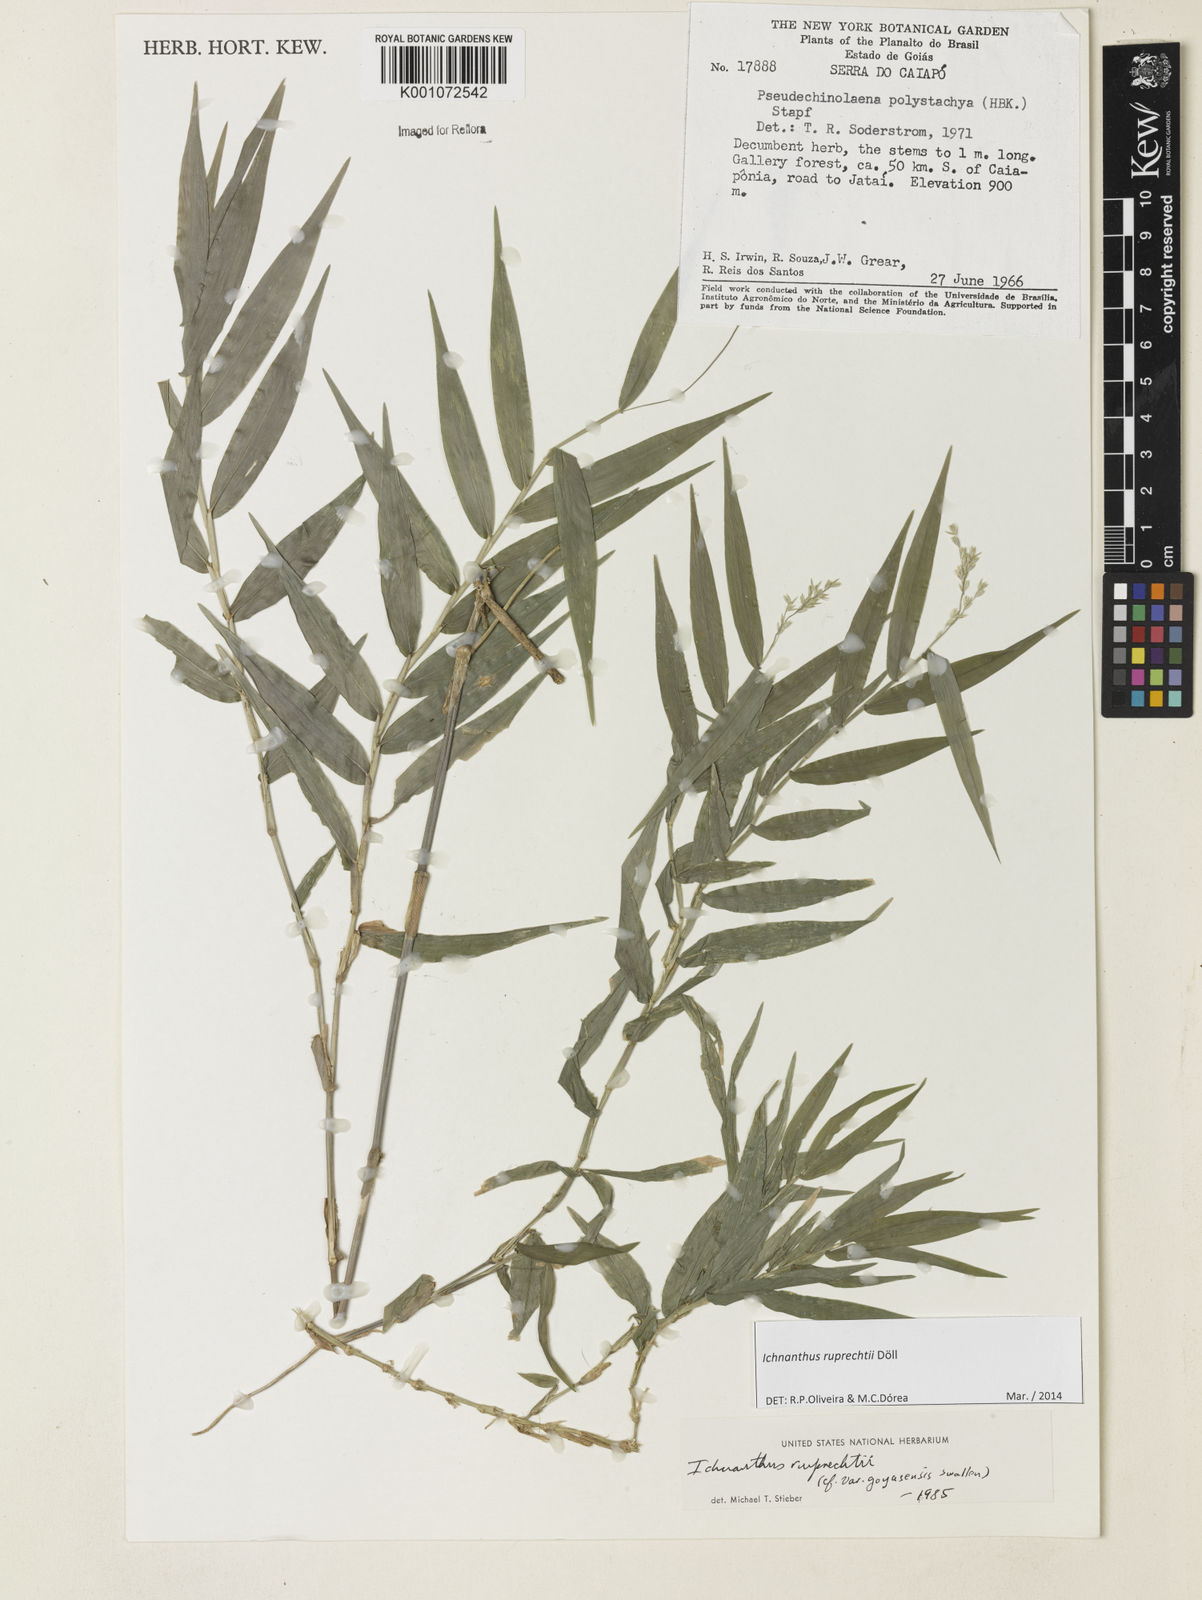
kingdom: Plantae
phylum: Tracheophyta
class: Liliopsida
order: Poales
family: Poaceae
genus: Ichnanthus
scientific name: Ichnanthus
